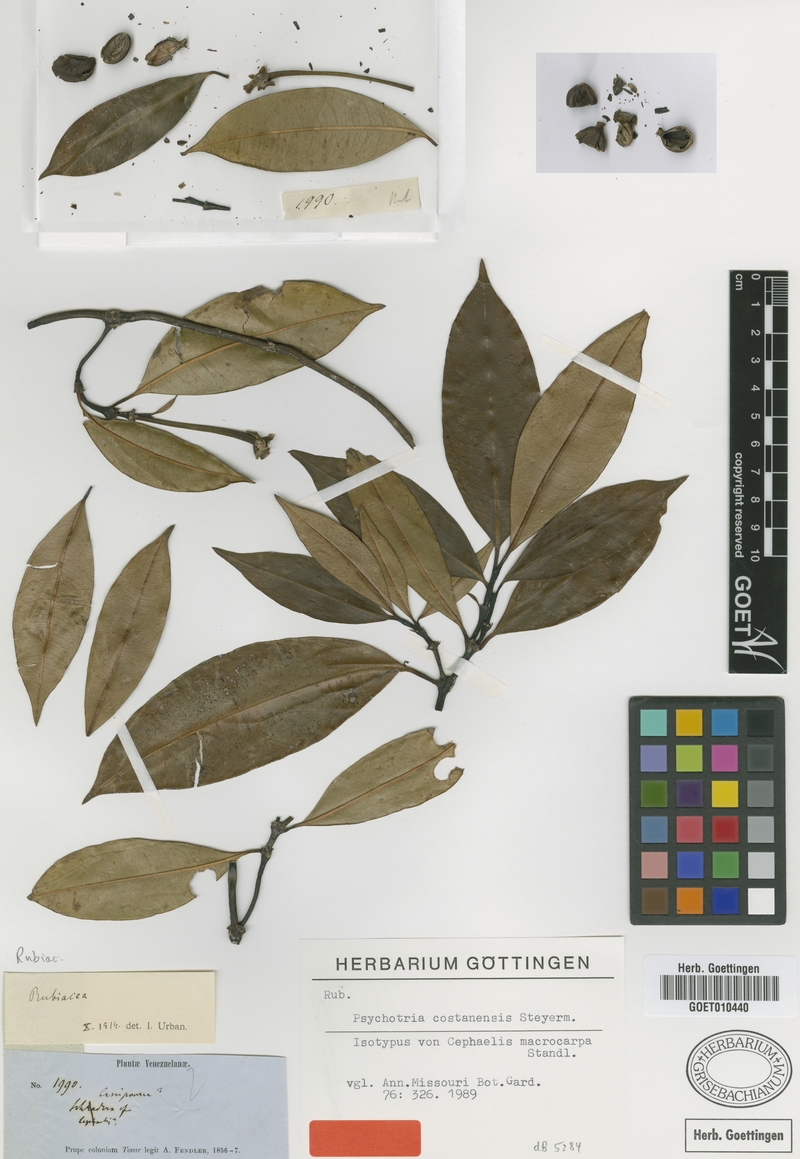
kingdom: Plantae
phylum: Tracheophyta
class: Magnoliopsida
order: Gentianales
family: Rubiaceae
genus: Palicourea
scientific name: Palicourea costanensis
